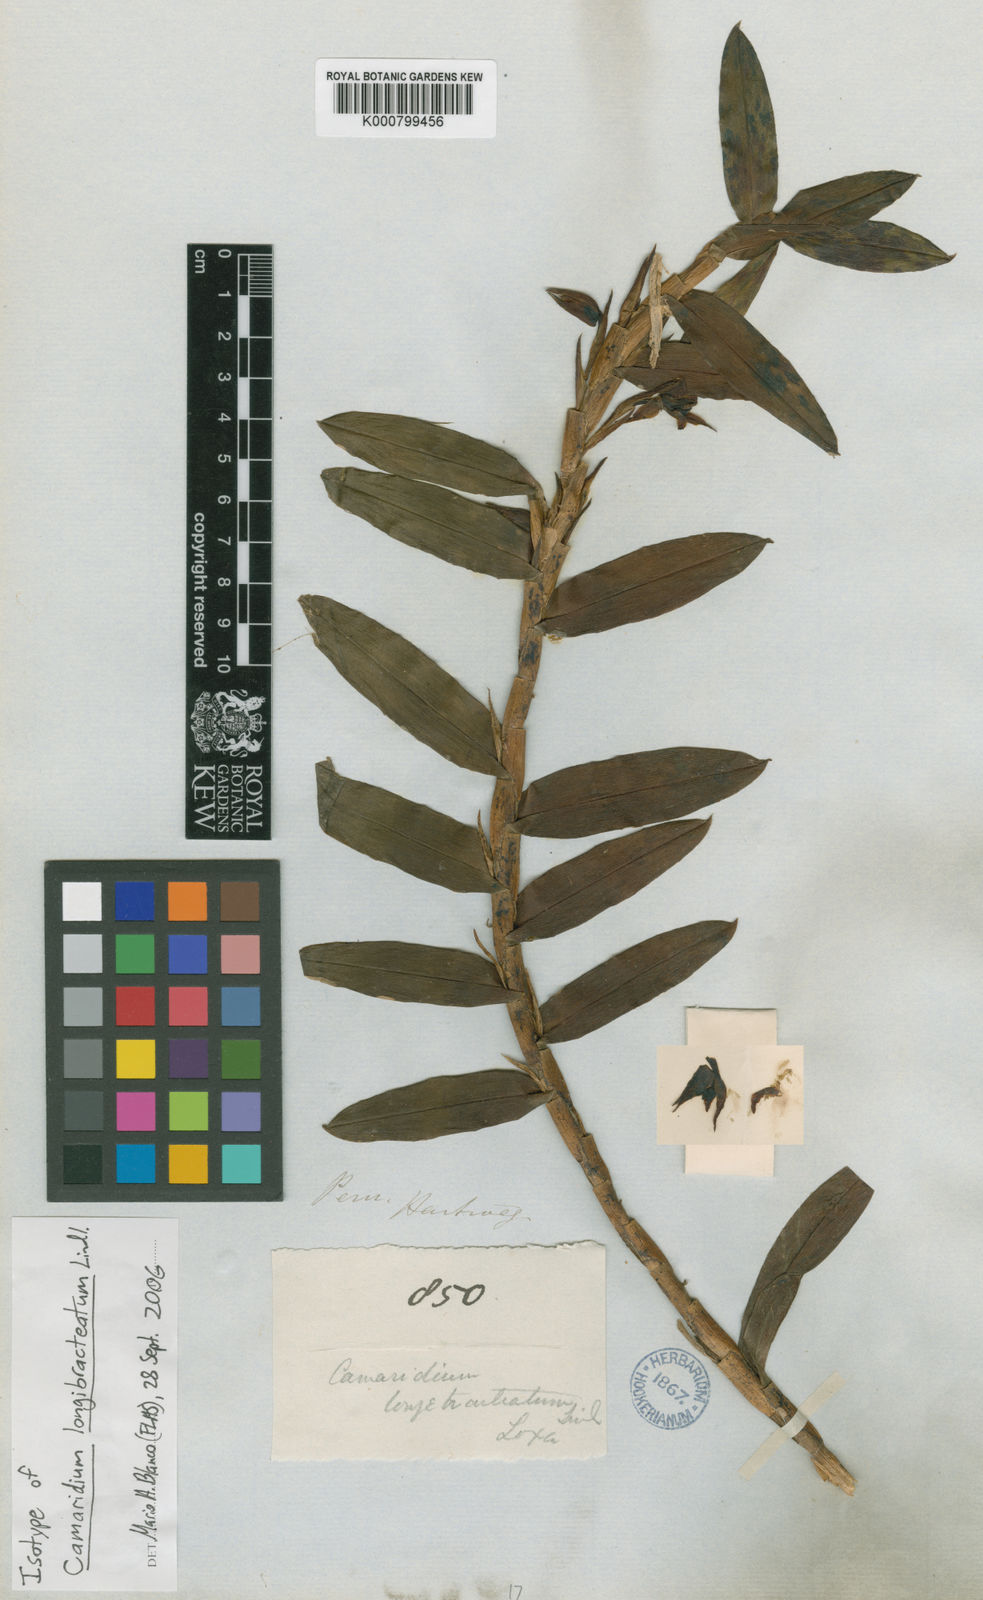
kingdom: Plantae
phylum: Tracheophyta
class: Liliopsida
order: Asparagales
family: Orchidaceae
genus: Maxillaria
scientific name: Maxillaria longibracteata
